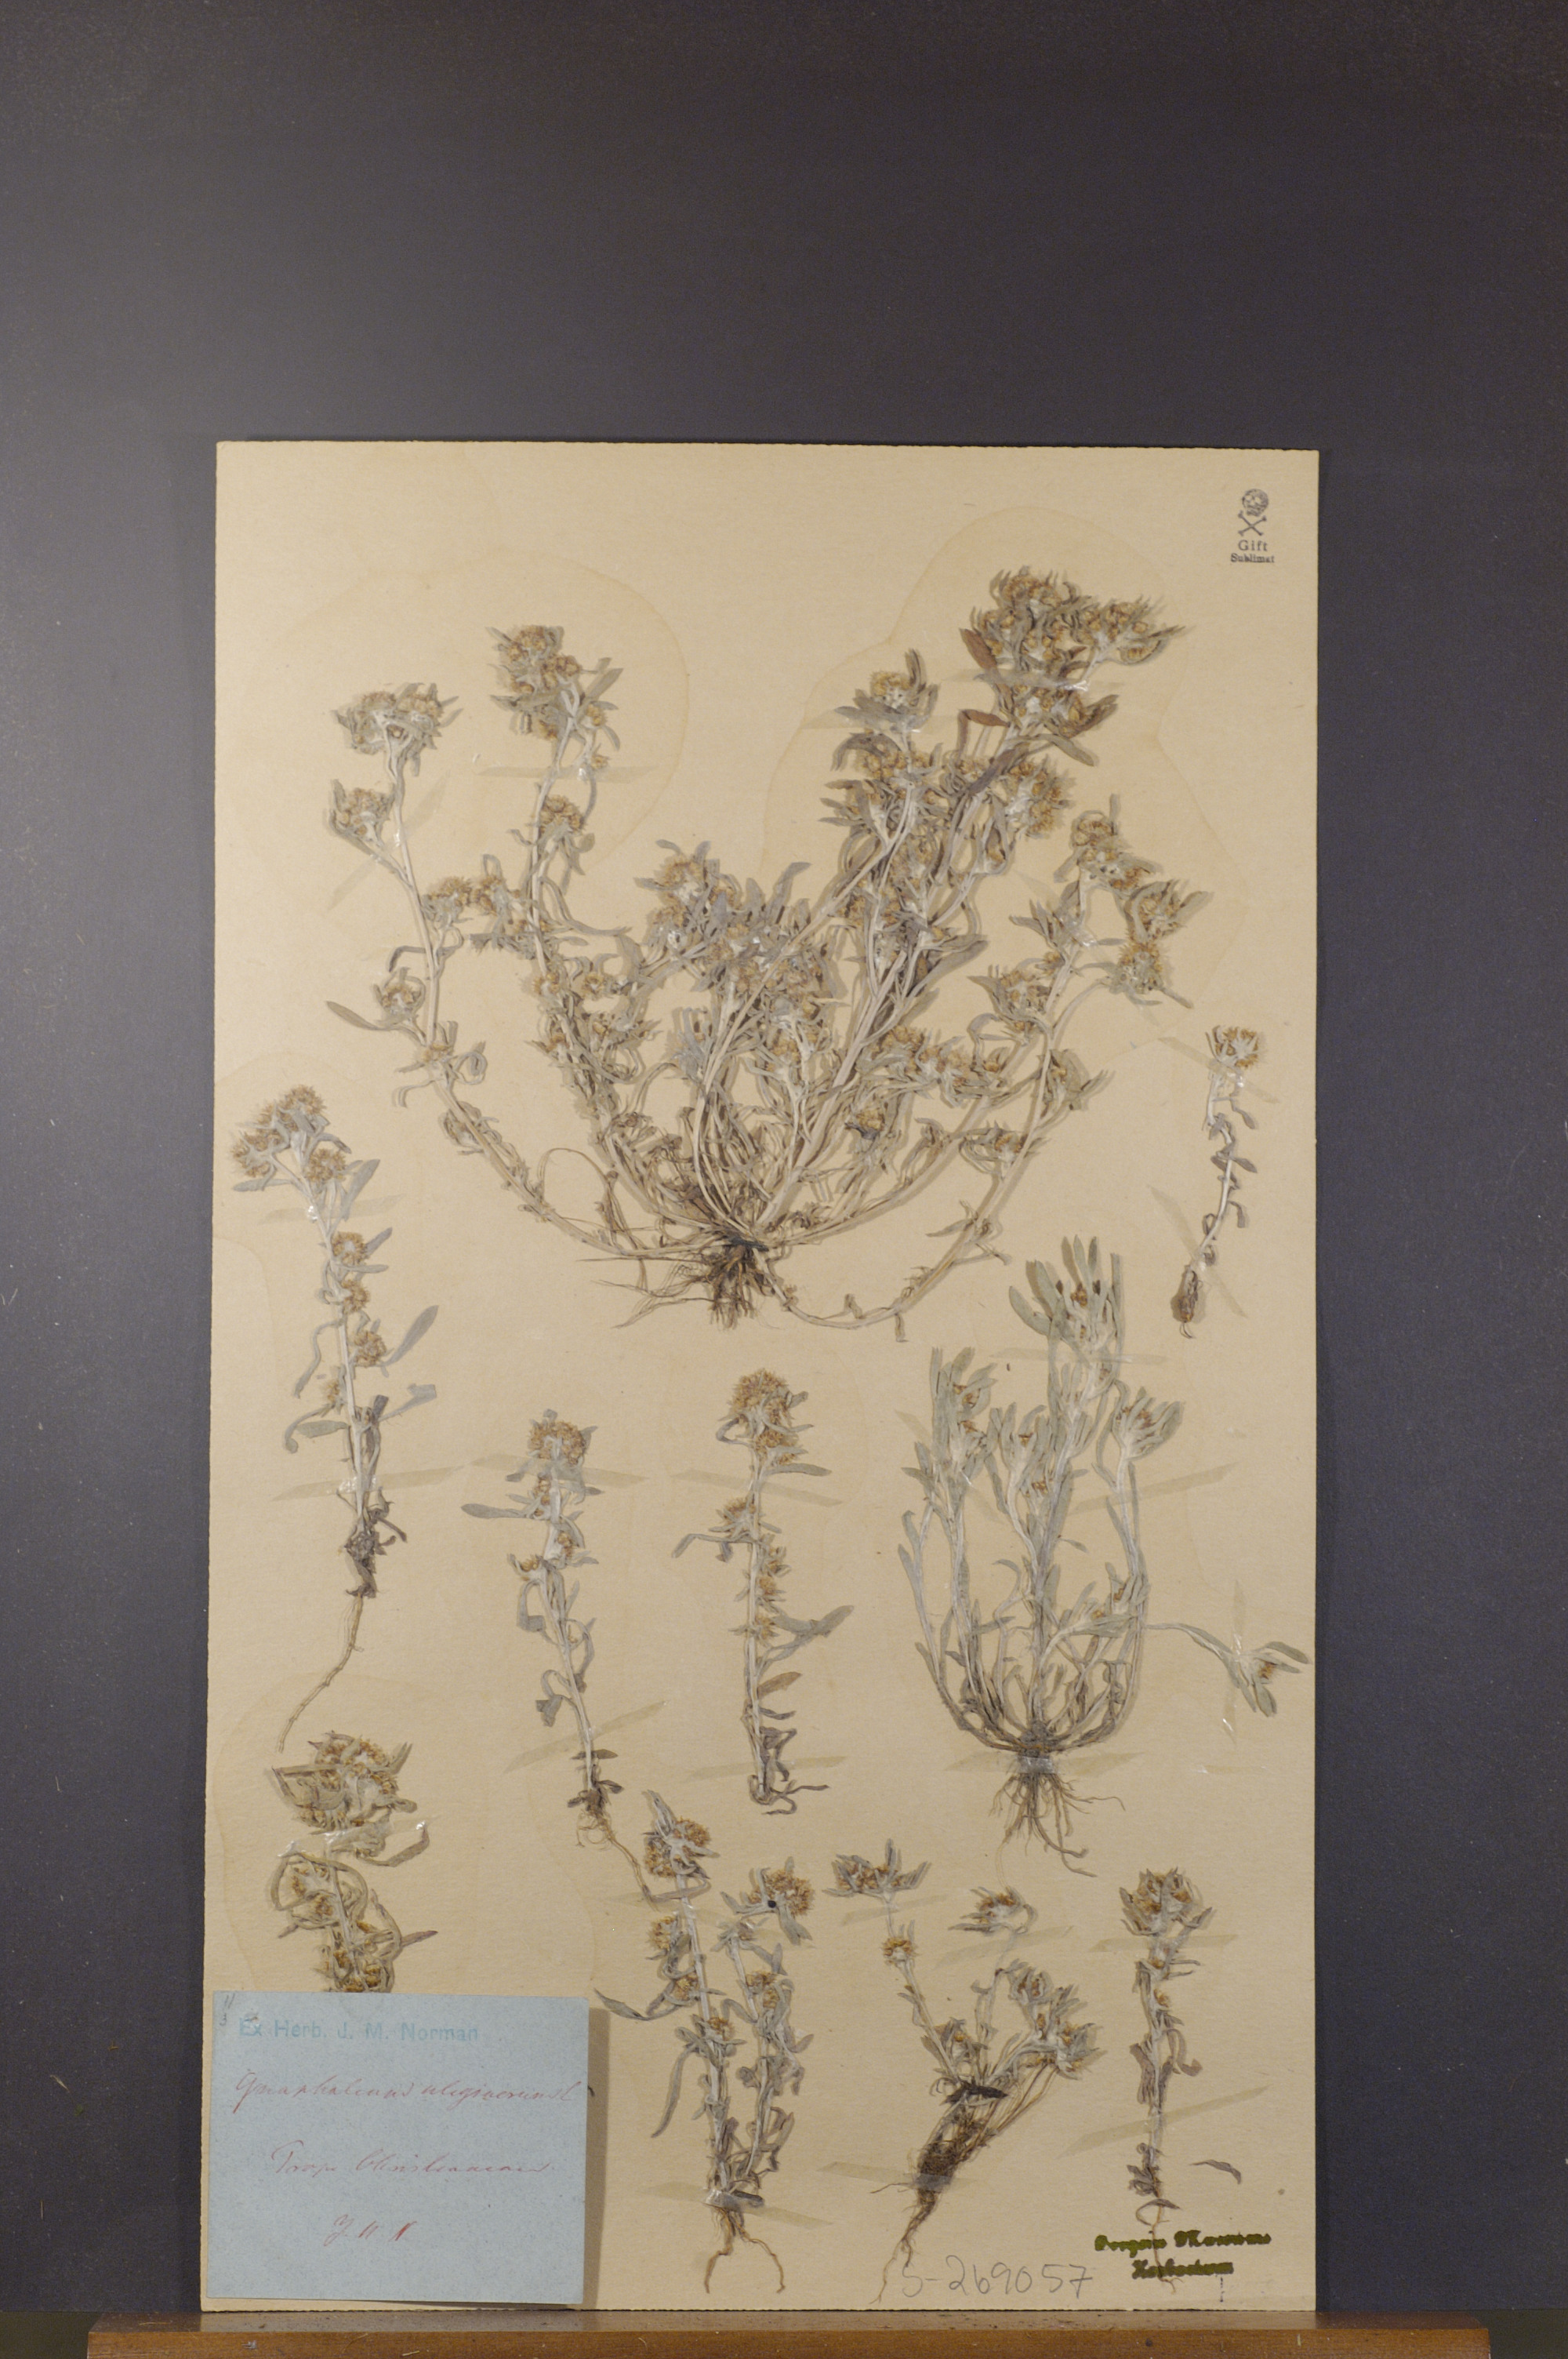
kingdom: Plantae
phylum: Tracheophyta
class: Magnoliopsida
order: Asterales
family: Asteraceae
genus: Gnaphalium
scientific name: Gnaphalium uliginosum
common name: Marsh cudweed
